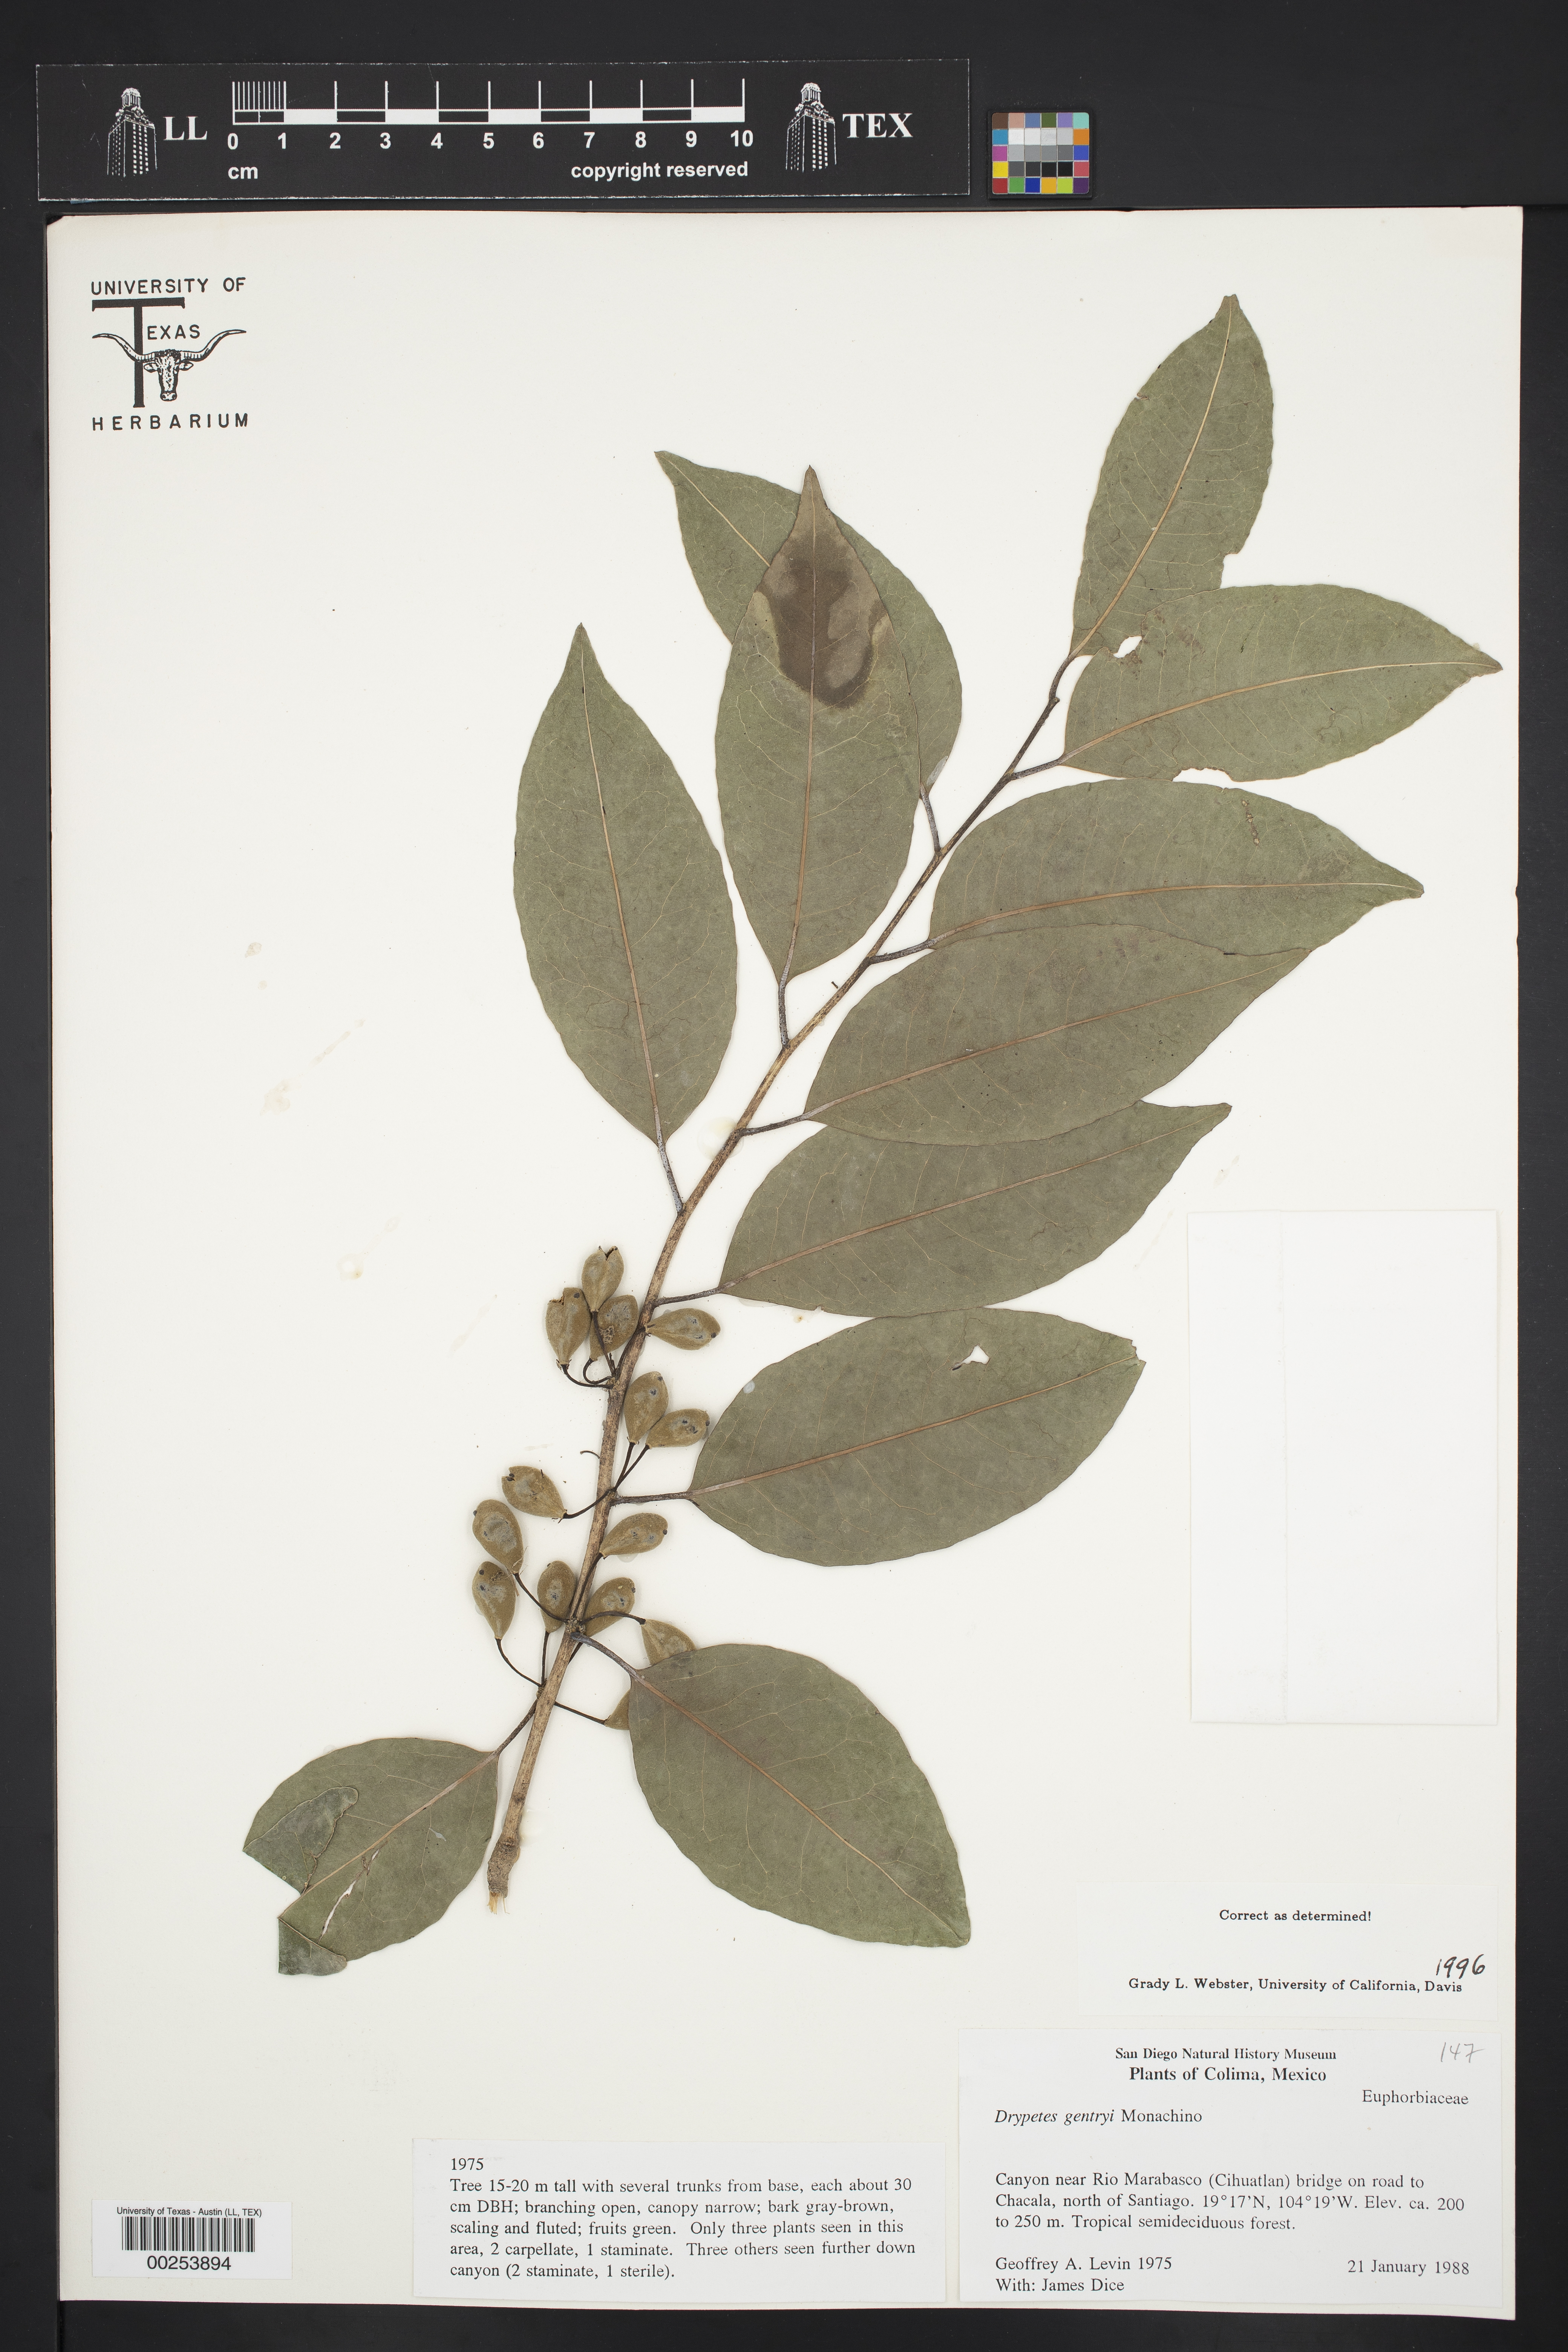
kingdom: Plantae
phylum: Tracheophyta
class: Magnoliopsida
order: Malpighiales
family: Putranjivaceae
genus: Drypetes
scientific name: Drypetes gentryi
